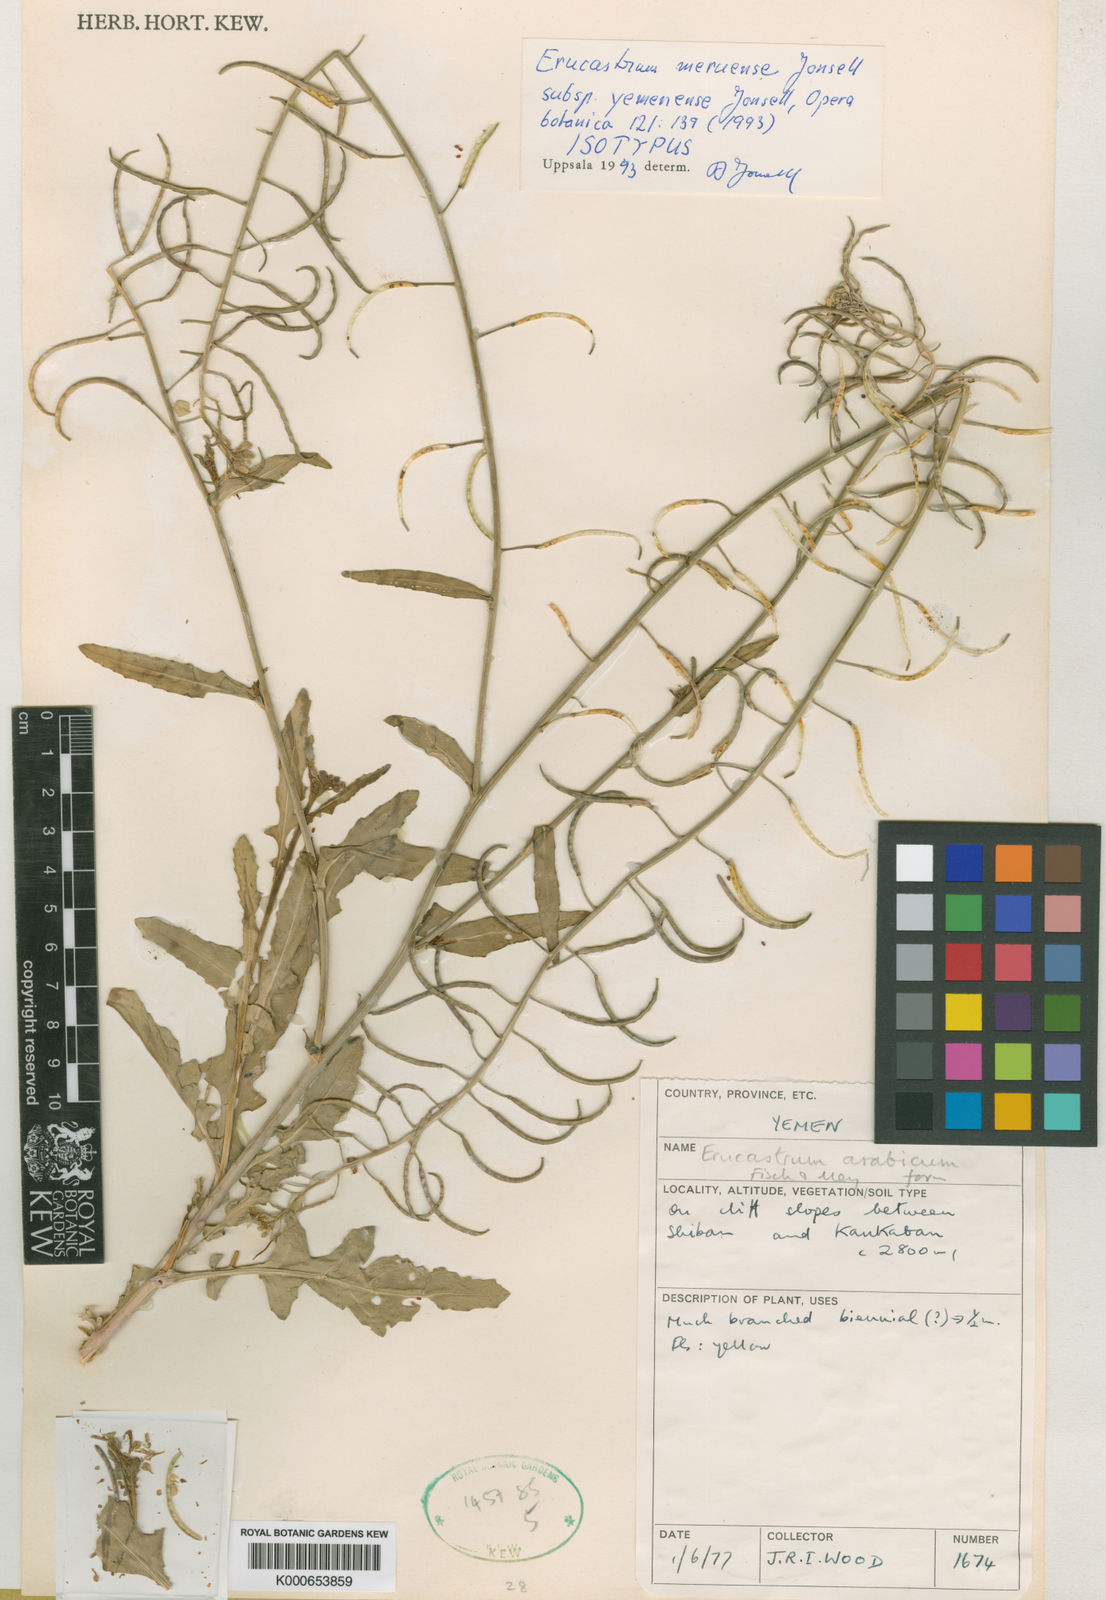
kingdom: Plantae
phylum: Tracheophyta
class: Magnoliopsida
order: Brassicales
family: Brassicaceae
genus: Erucastrum
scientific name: Erucastrum meruense
